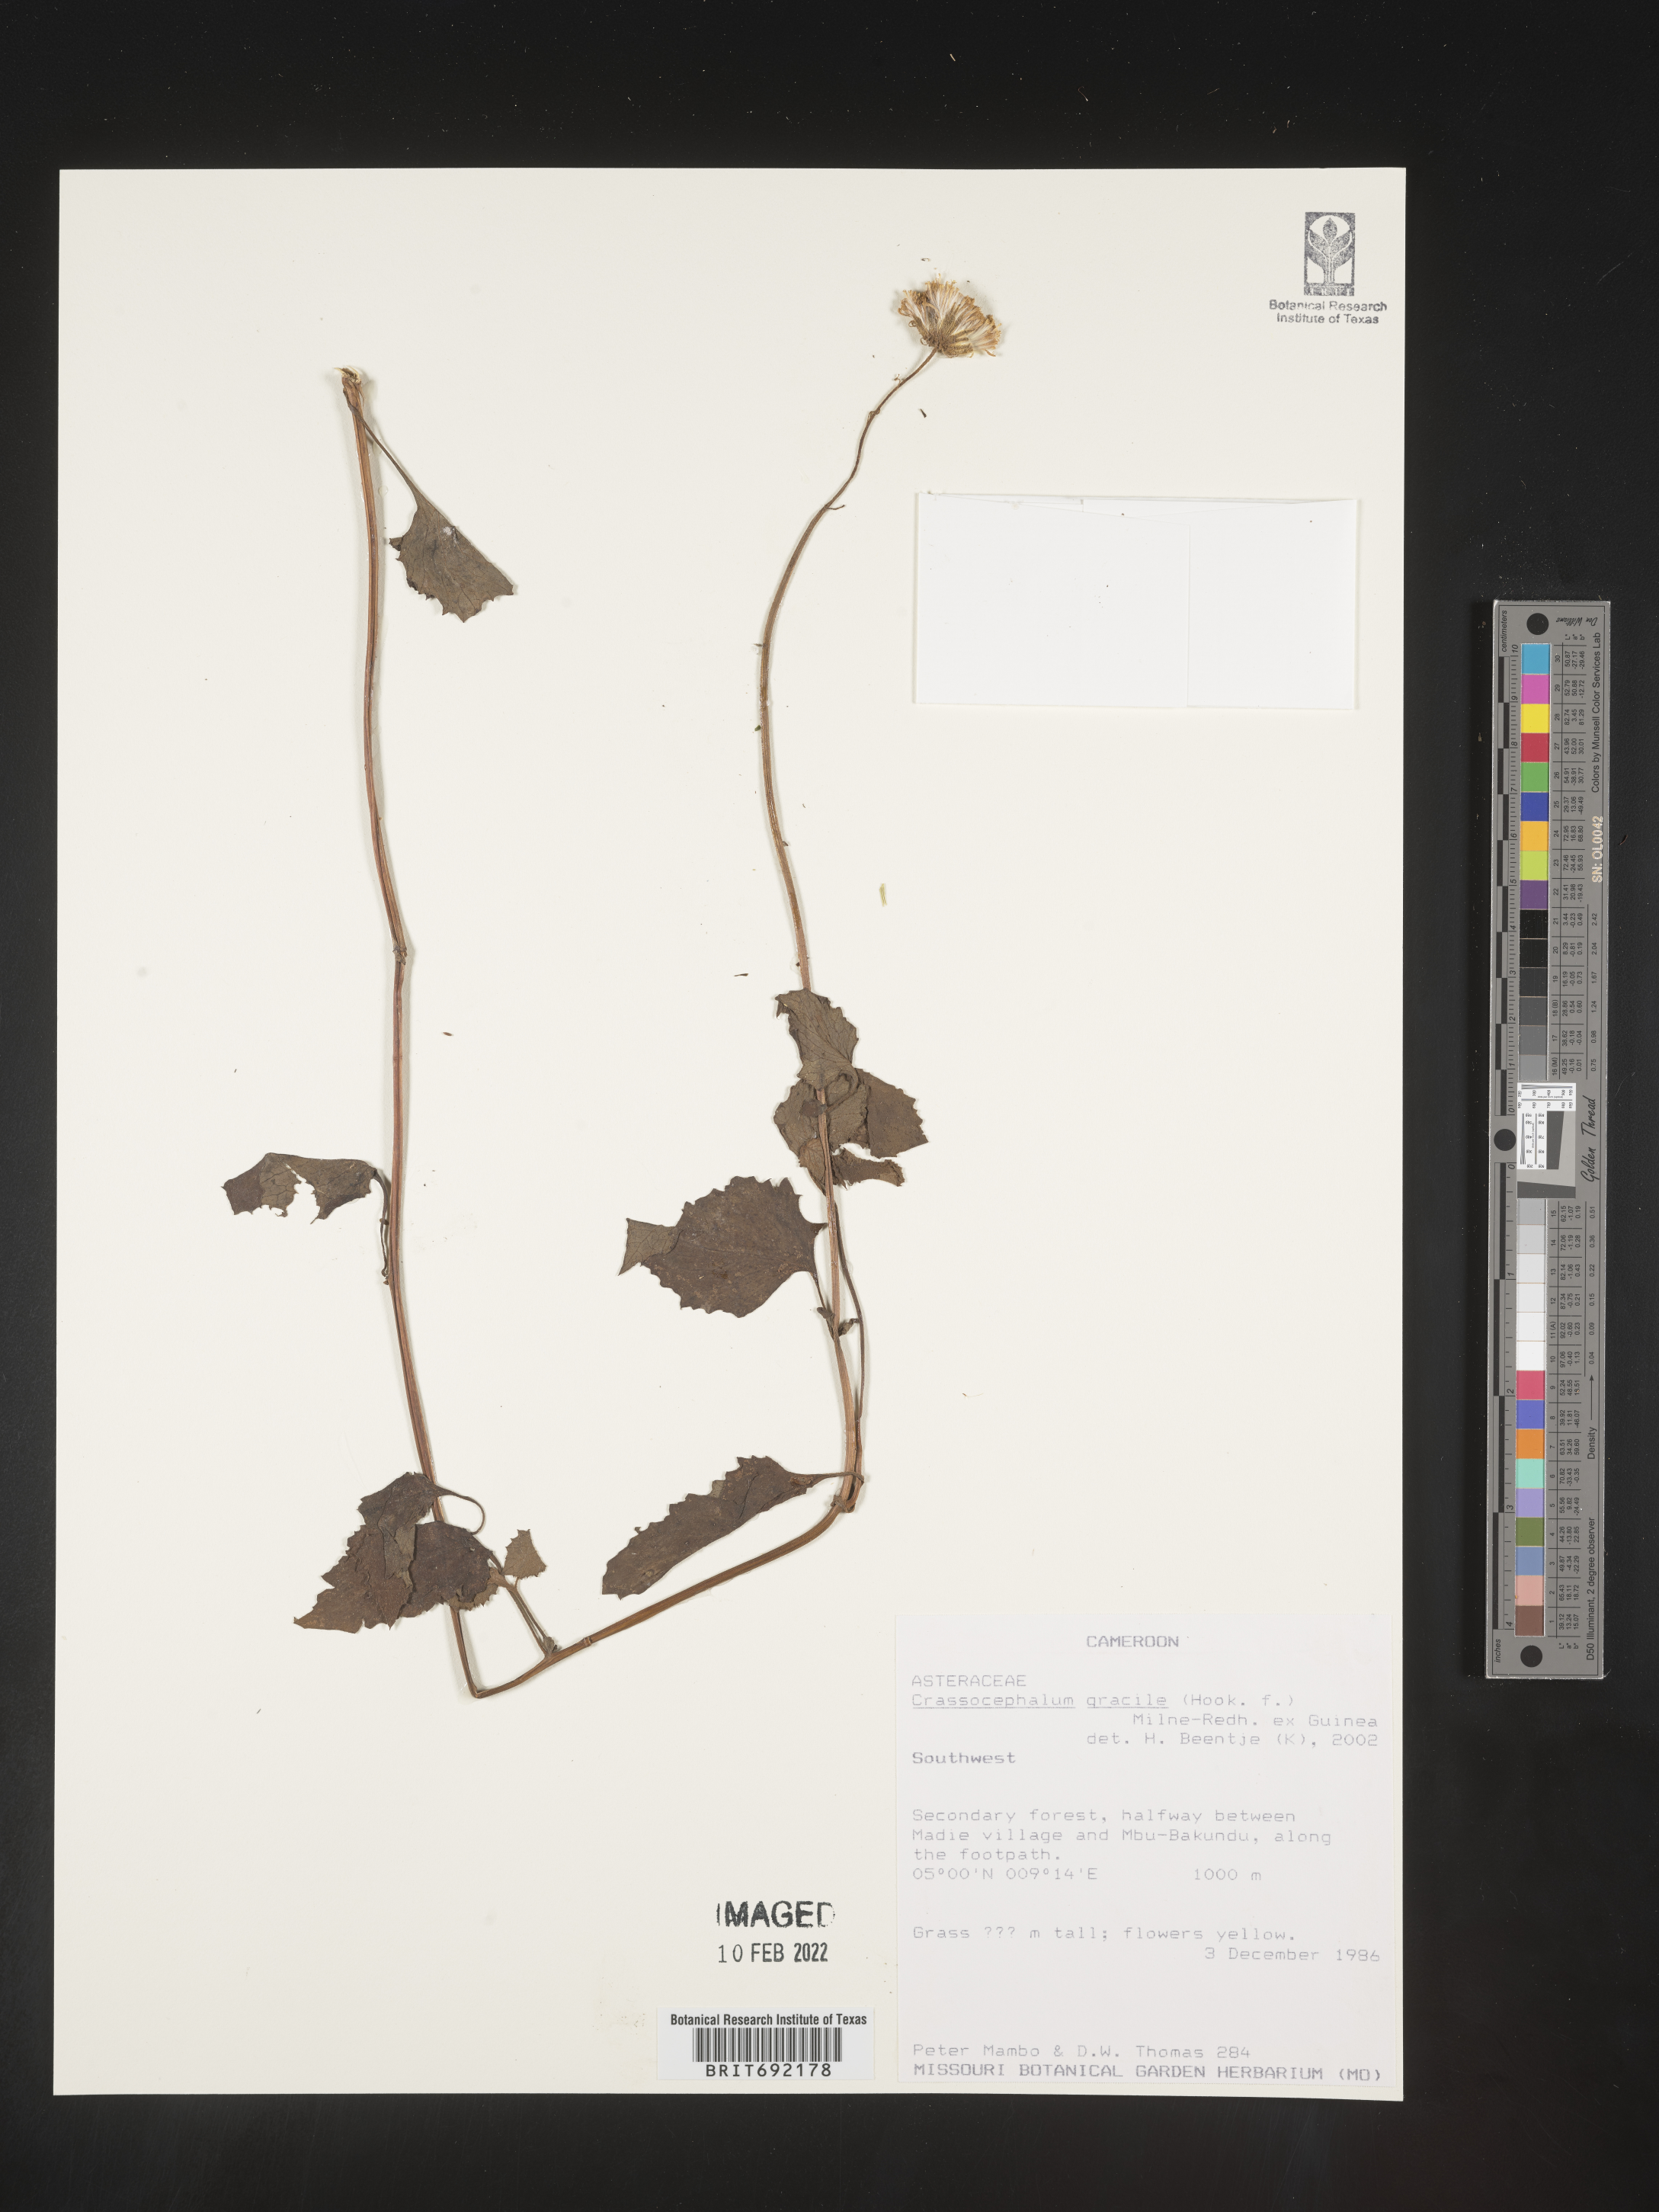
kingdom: Plantae
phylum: Tracheophyta
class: Magnoliopsida
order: Asterales
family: Asteraceae
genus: Crassocephalum
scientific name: Crassocephalum
